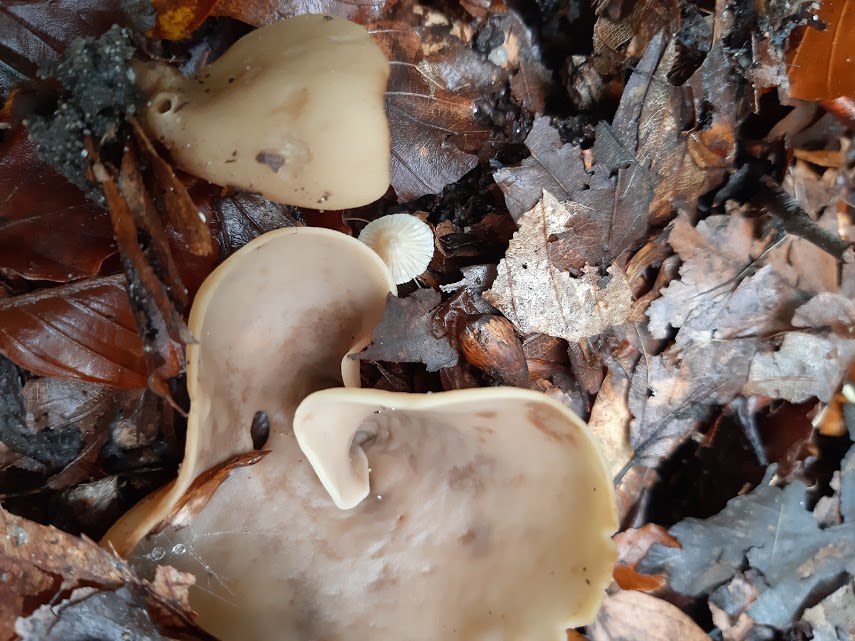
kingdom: Fungi
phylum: Ascomycota
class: Pezizomycetes
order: Pezizales
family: Otideaceae
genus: Otidea
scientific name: Otidea alutacea
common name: læder-ørebæger
